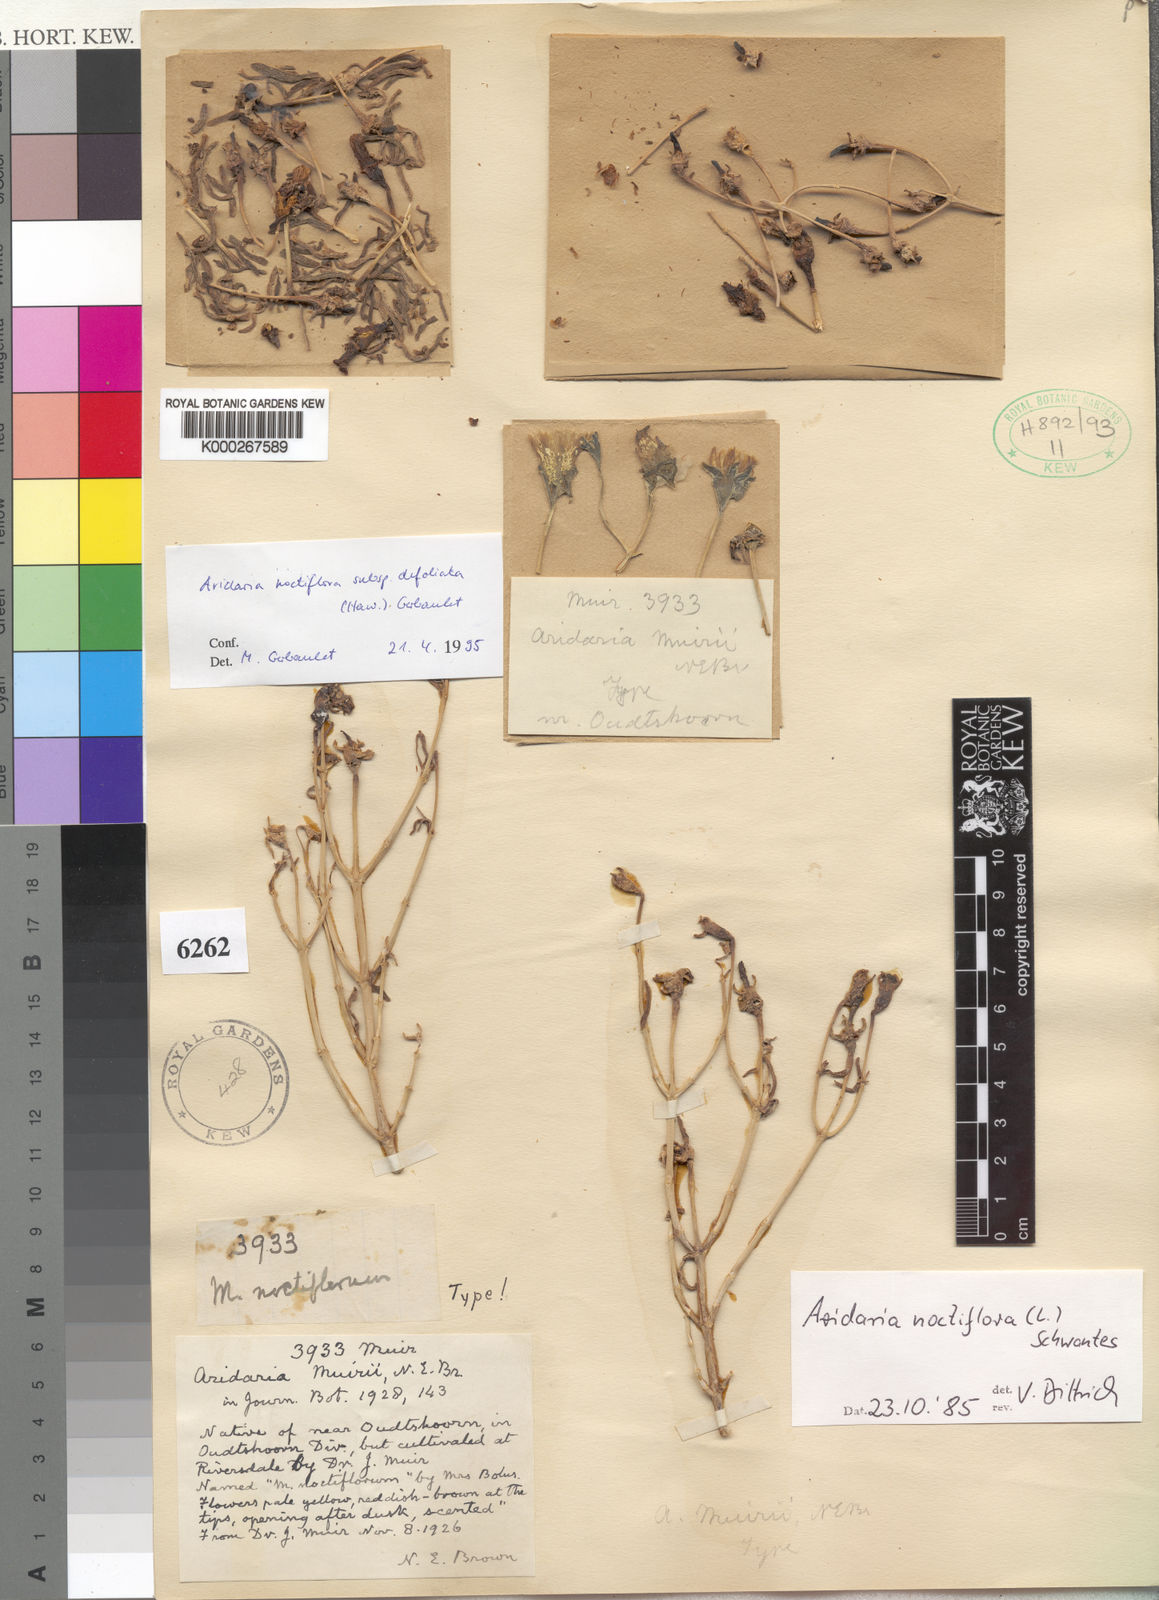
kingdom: Plantae
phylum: Tracheophyta
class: Magnoliopsida
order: Caryophyllales
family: Aizoaceae
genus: Mesembryanthemum
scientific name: Mesembryanthemum noctiflorum
